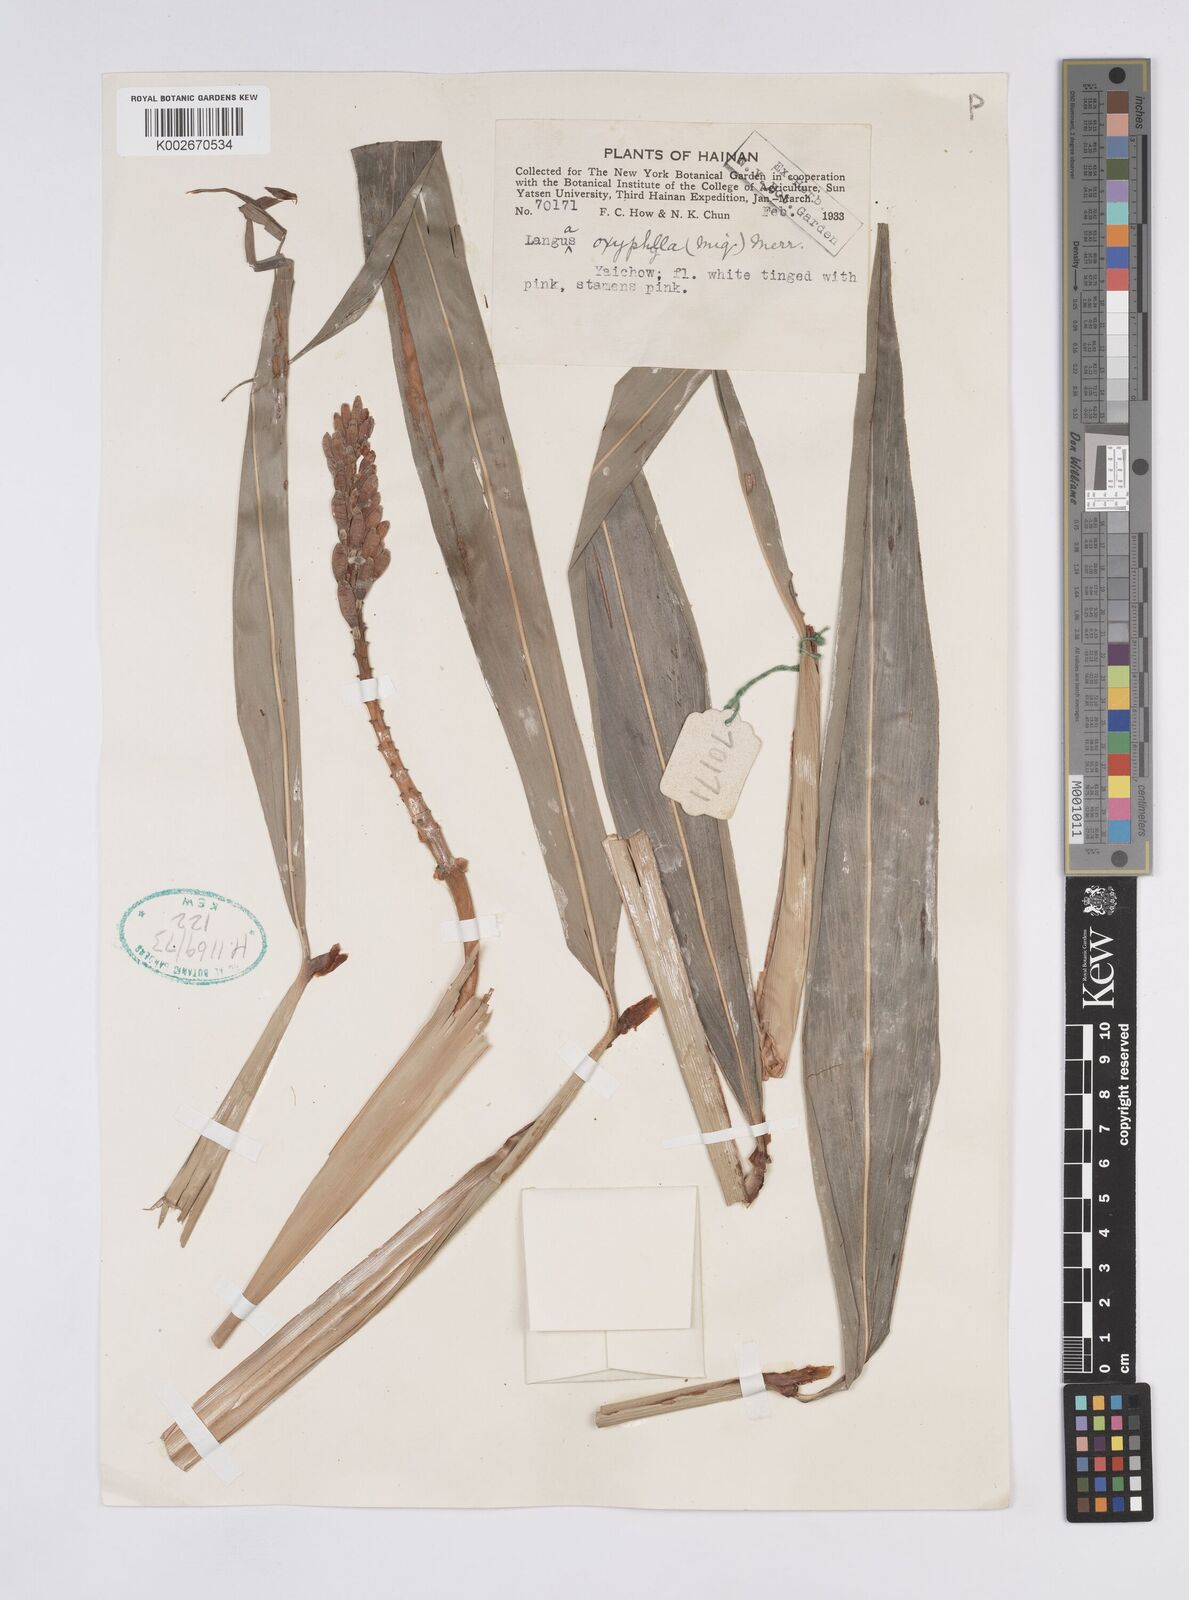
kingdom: Plantae
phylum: Tracheophyta
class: Liliopsida
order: Zingiberales
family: Zingiberaceae
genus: Alpinia
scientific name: Alpinia oxyphylla
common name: Sharp-leaf galangal
